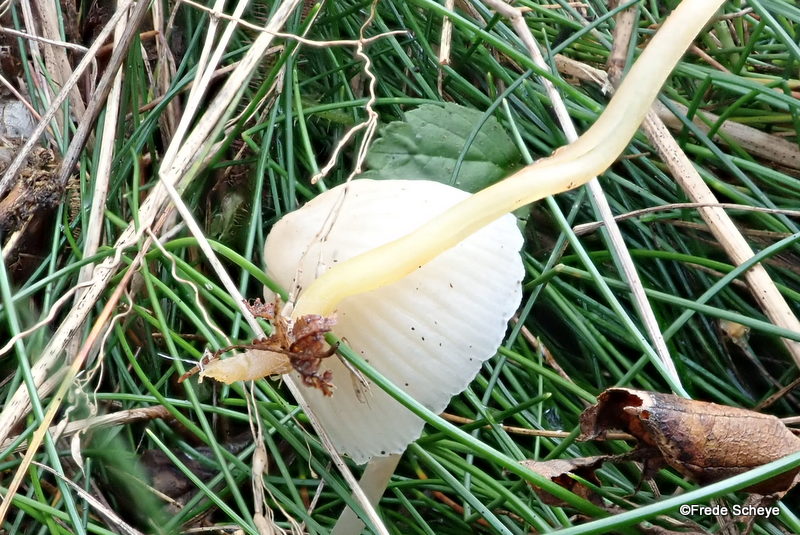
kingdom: Fungi
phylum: Basidiomycota
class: Agaricomycetes
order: Agaricales
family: Mycenaceae
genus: Mycena
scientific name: Mycena epipterygia
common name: gulstokket huesvamp
